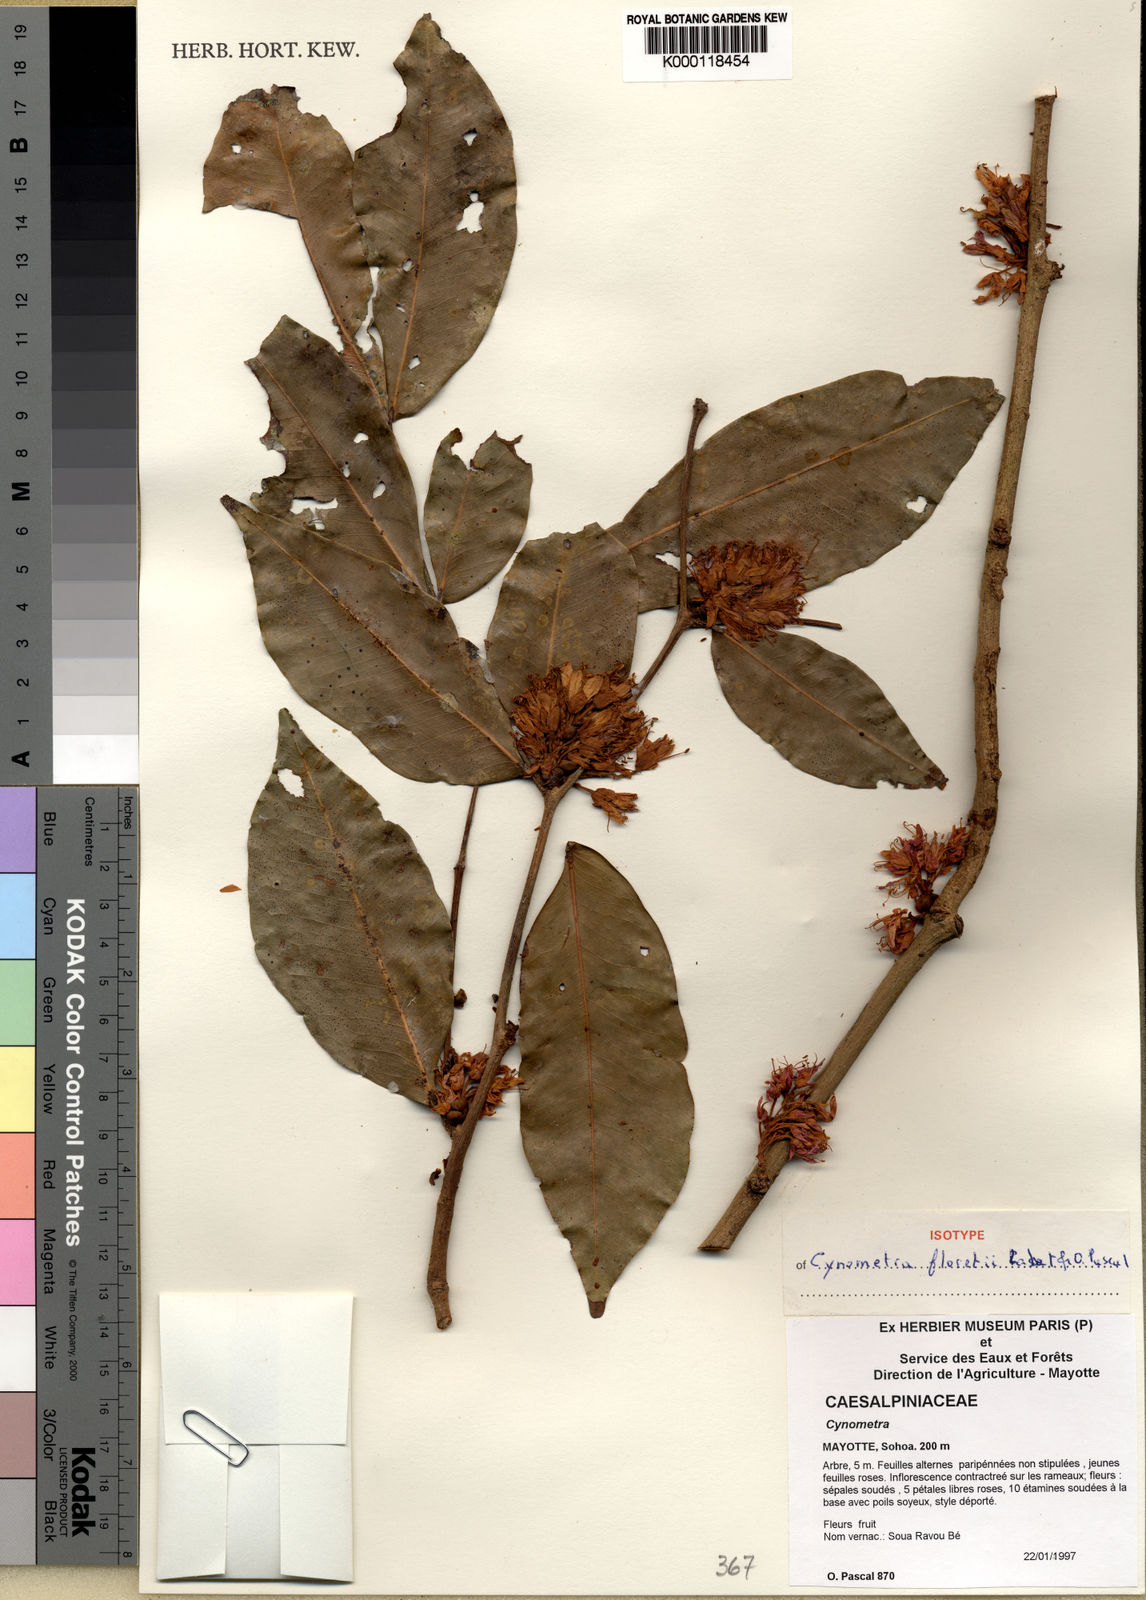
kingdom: Plantae
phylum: Tracheophyta
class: Magnoliopsida
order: Fabales
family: Fabaceae
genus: Cynometra
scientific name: Cynometra
